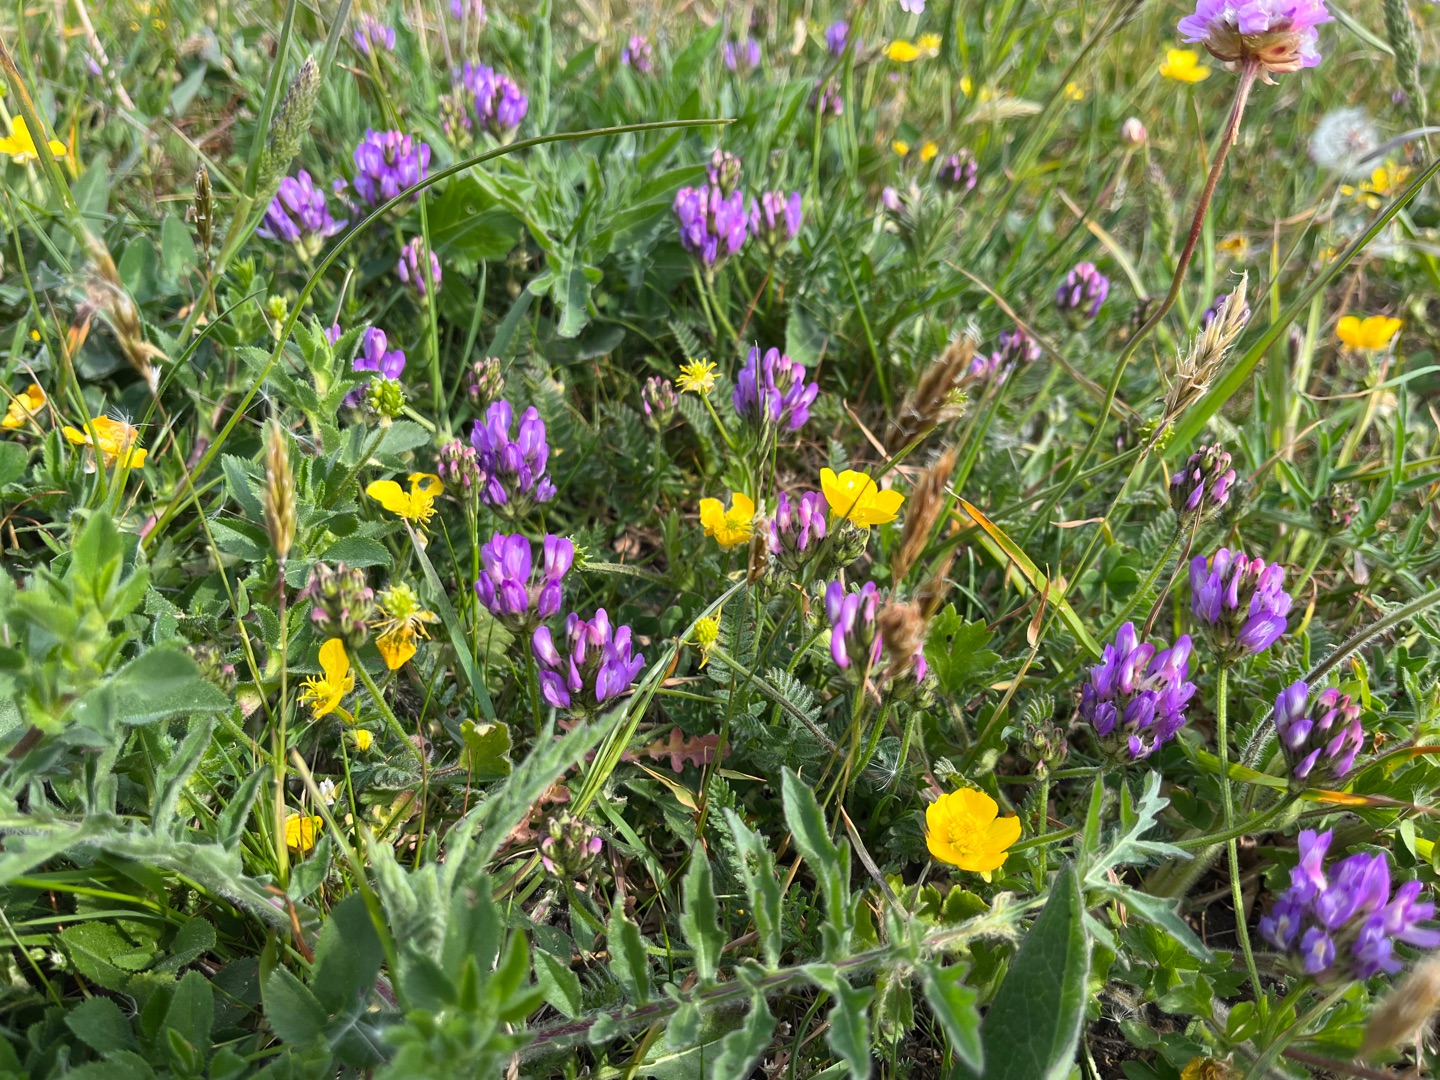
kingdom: Plantae
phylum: Tracheophyta
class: Magnoliopsida
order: Fabales
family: Fabaceae
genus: Astragalus
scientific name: Astragalus danicus
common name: Dansk astragel
